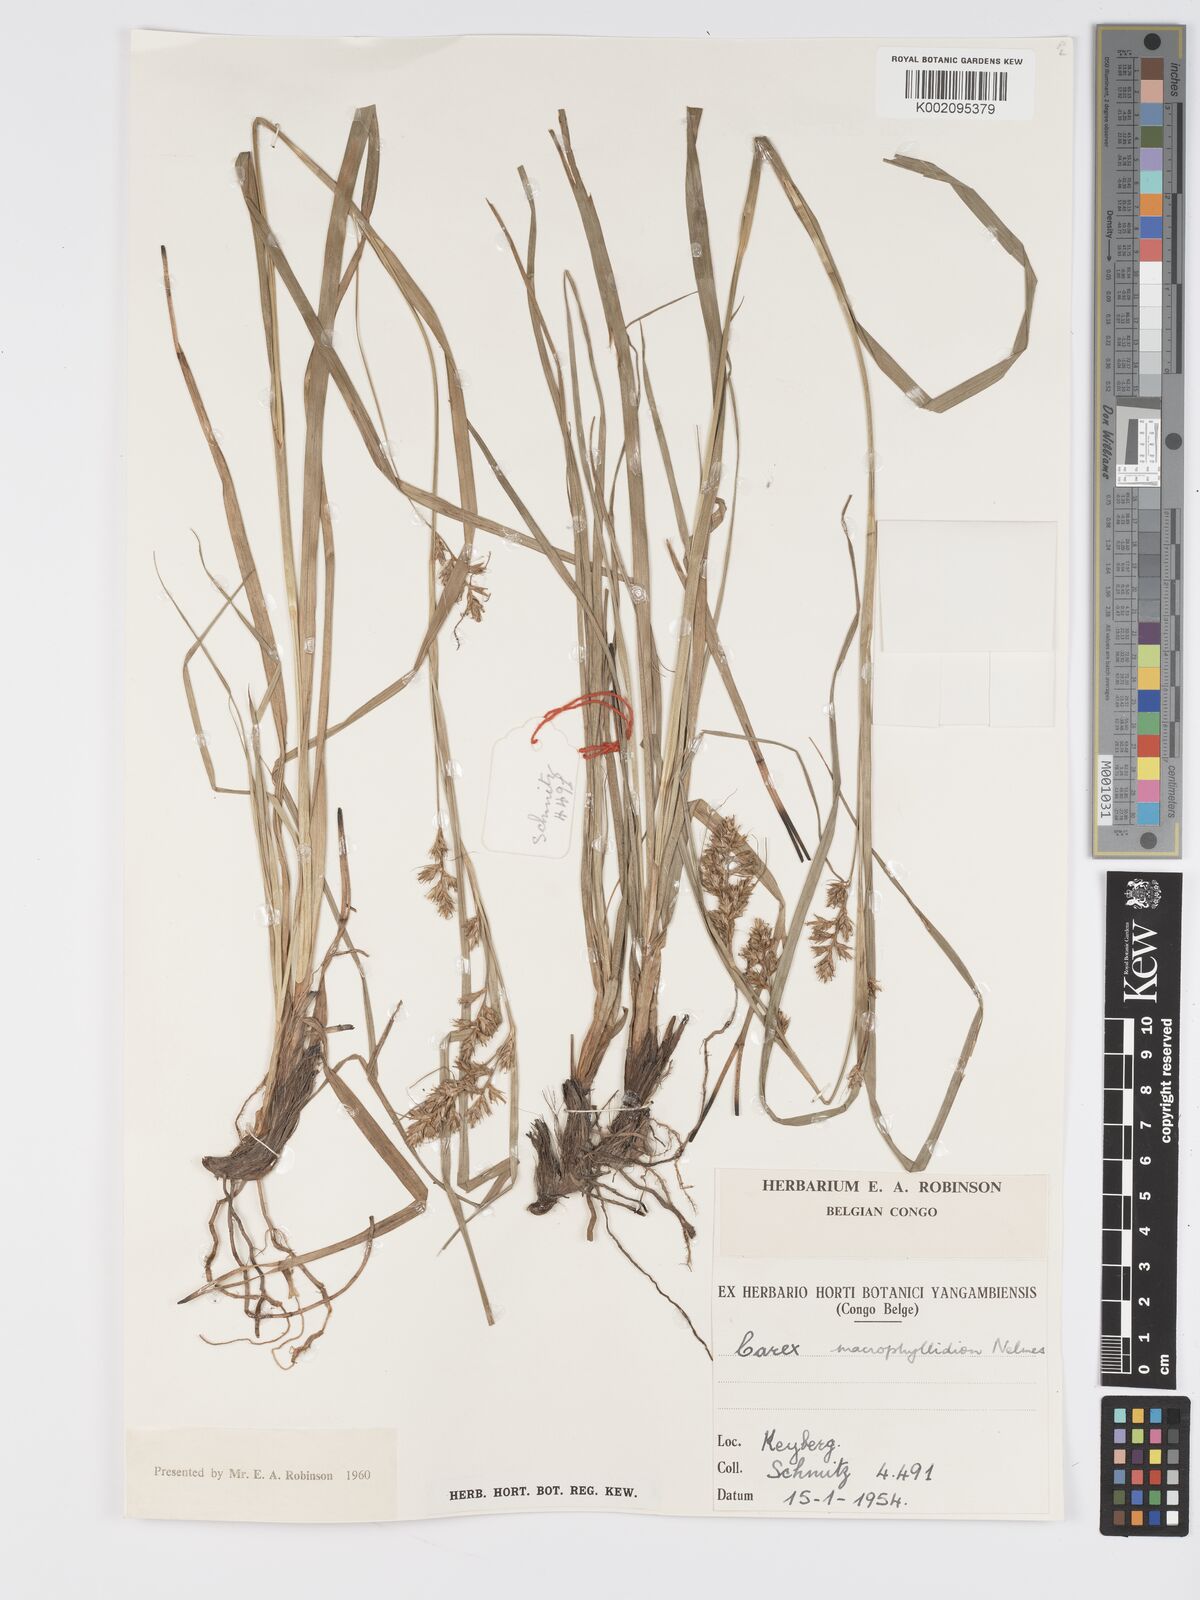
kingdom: Plantae
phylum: Tracheophyta
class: Liliopsida
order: Poales
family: Cyperaceae
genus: Carex
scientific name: Carex macrophyllidion
